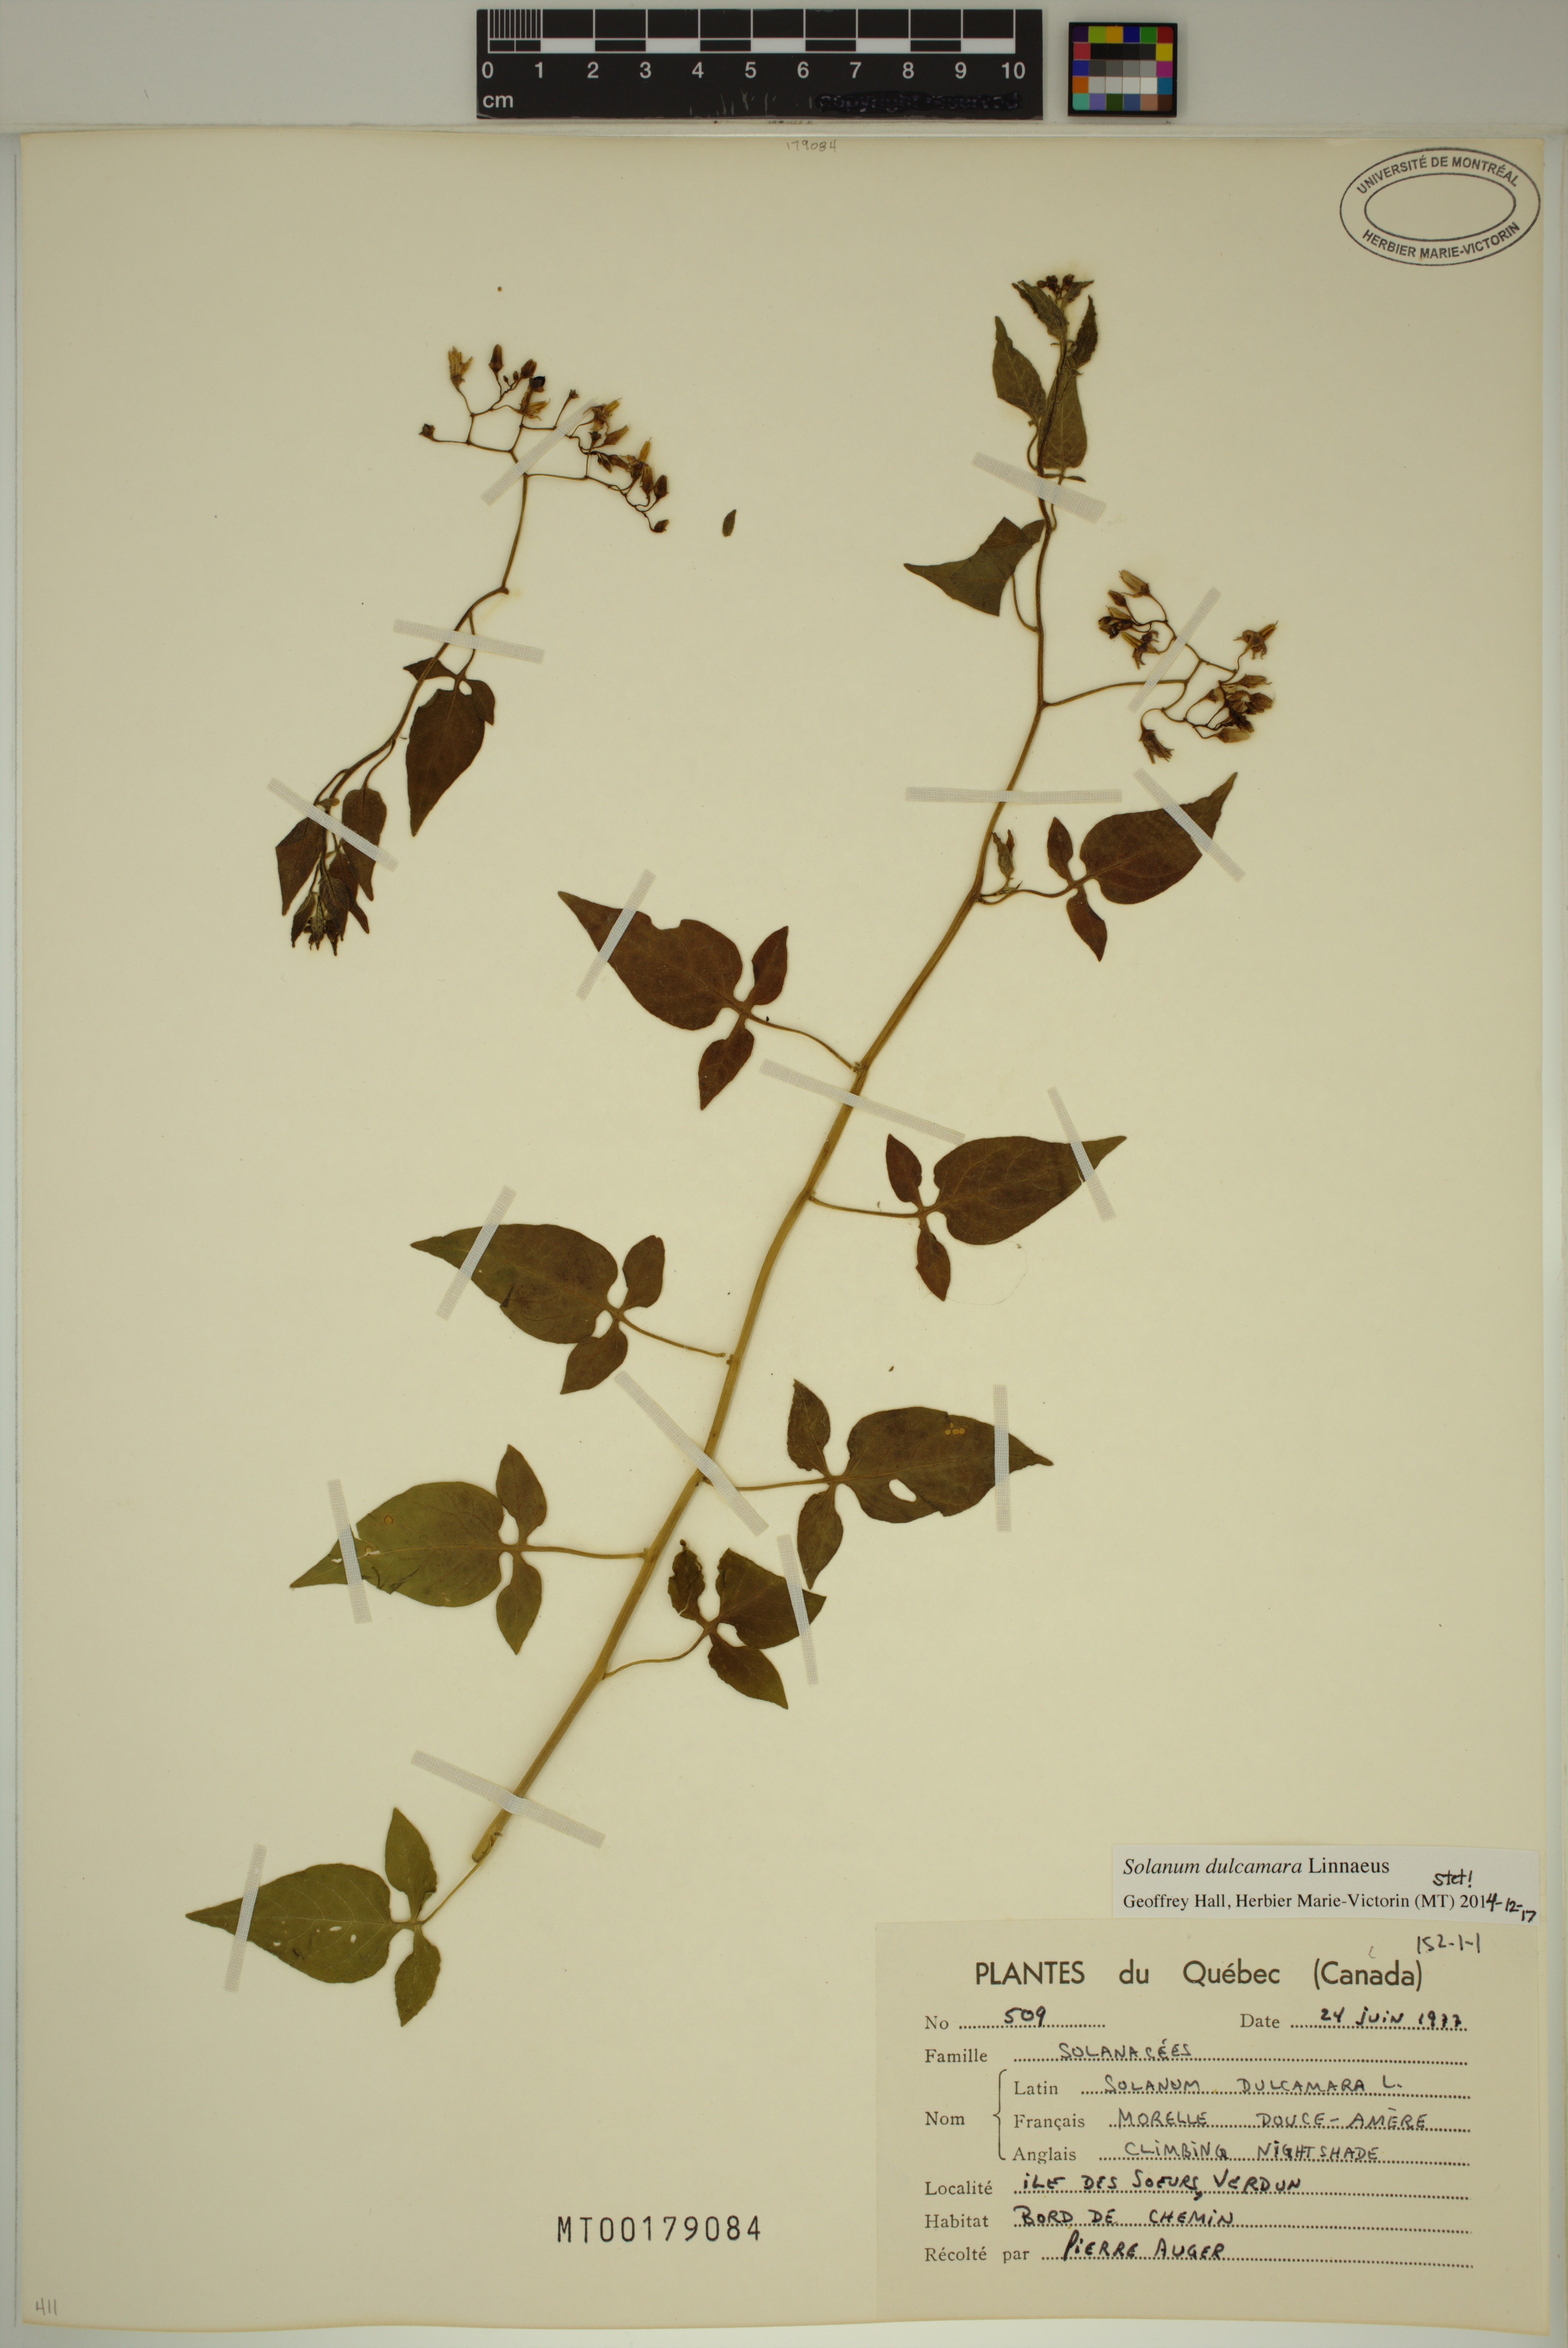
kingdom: Plantae
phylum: Tracheophyta
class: Magnoliopsida
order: Solanales
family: Solanaceae
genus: Solanum
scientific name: Solanum dulcamara
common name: Climbing nightshade
